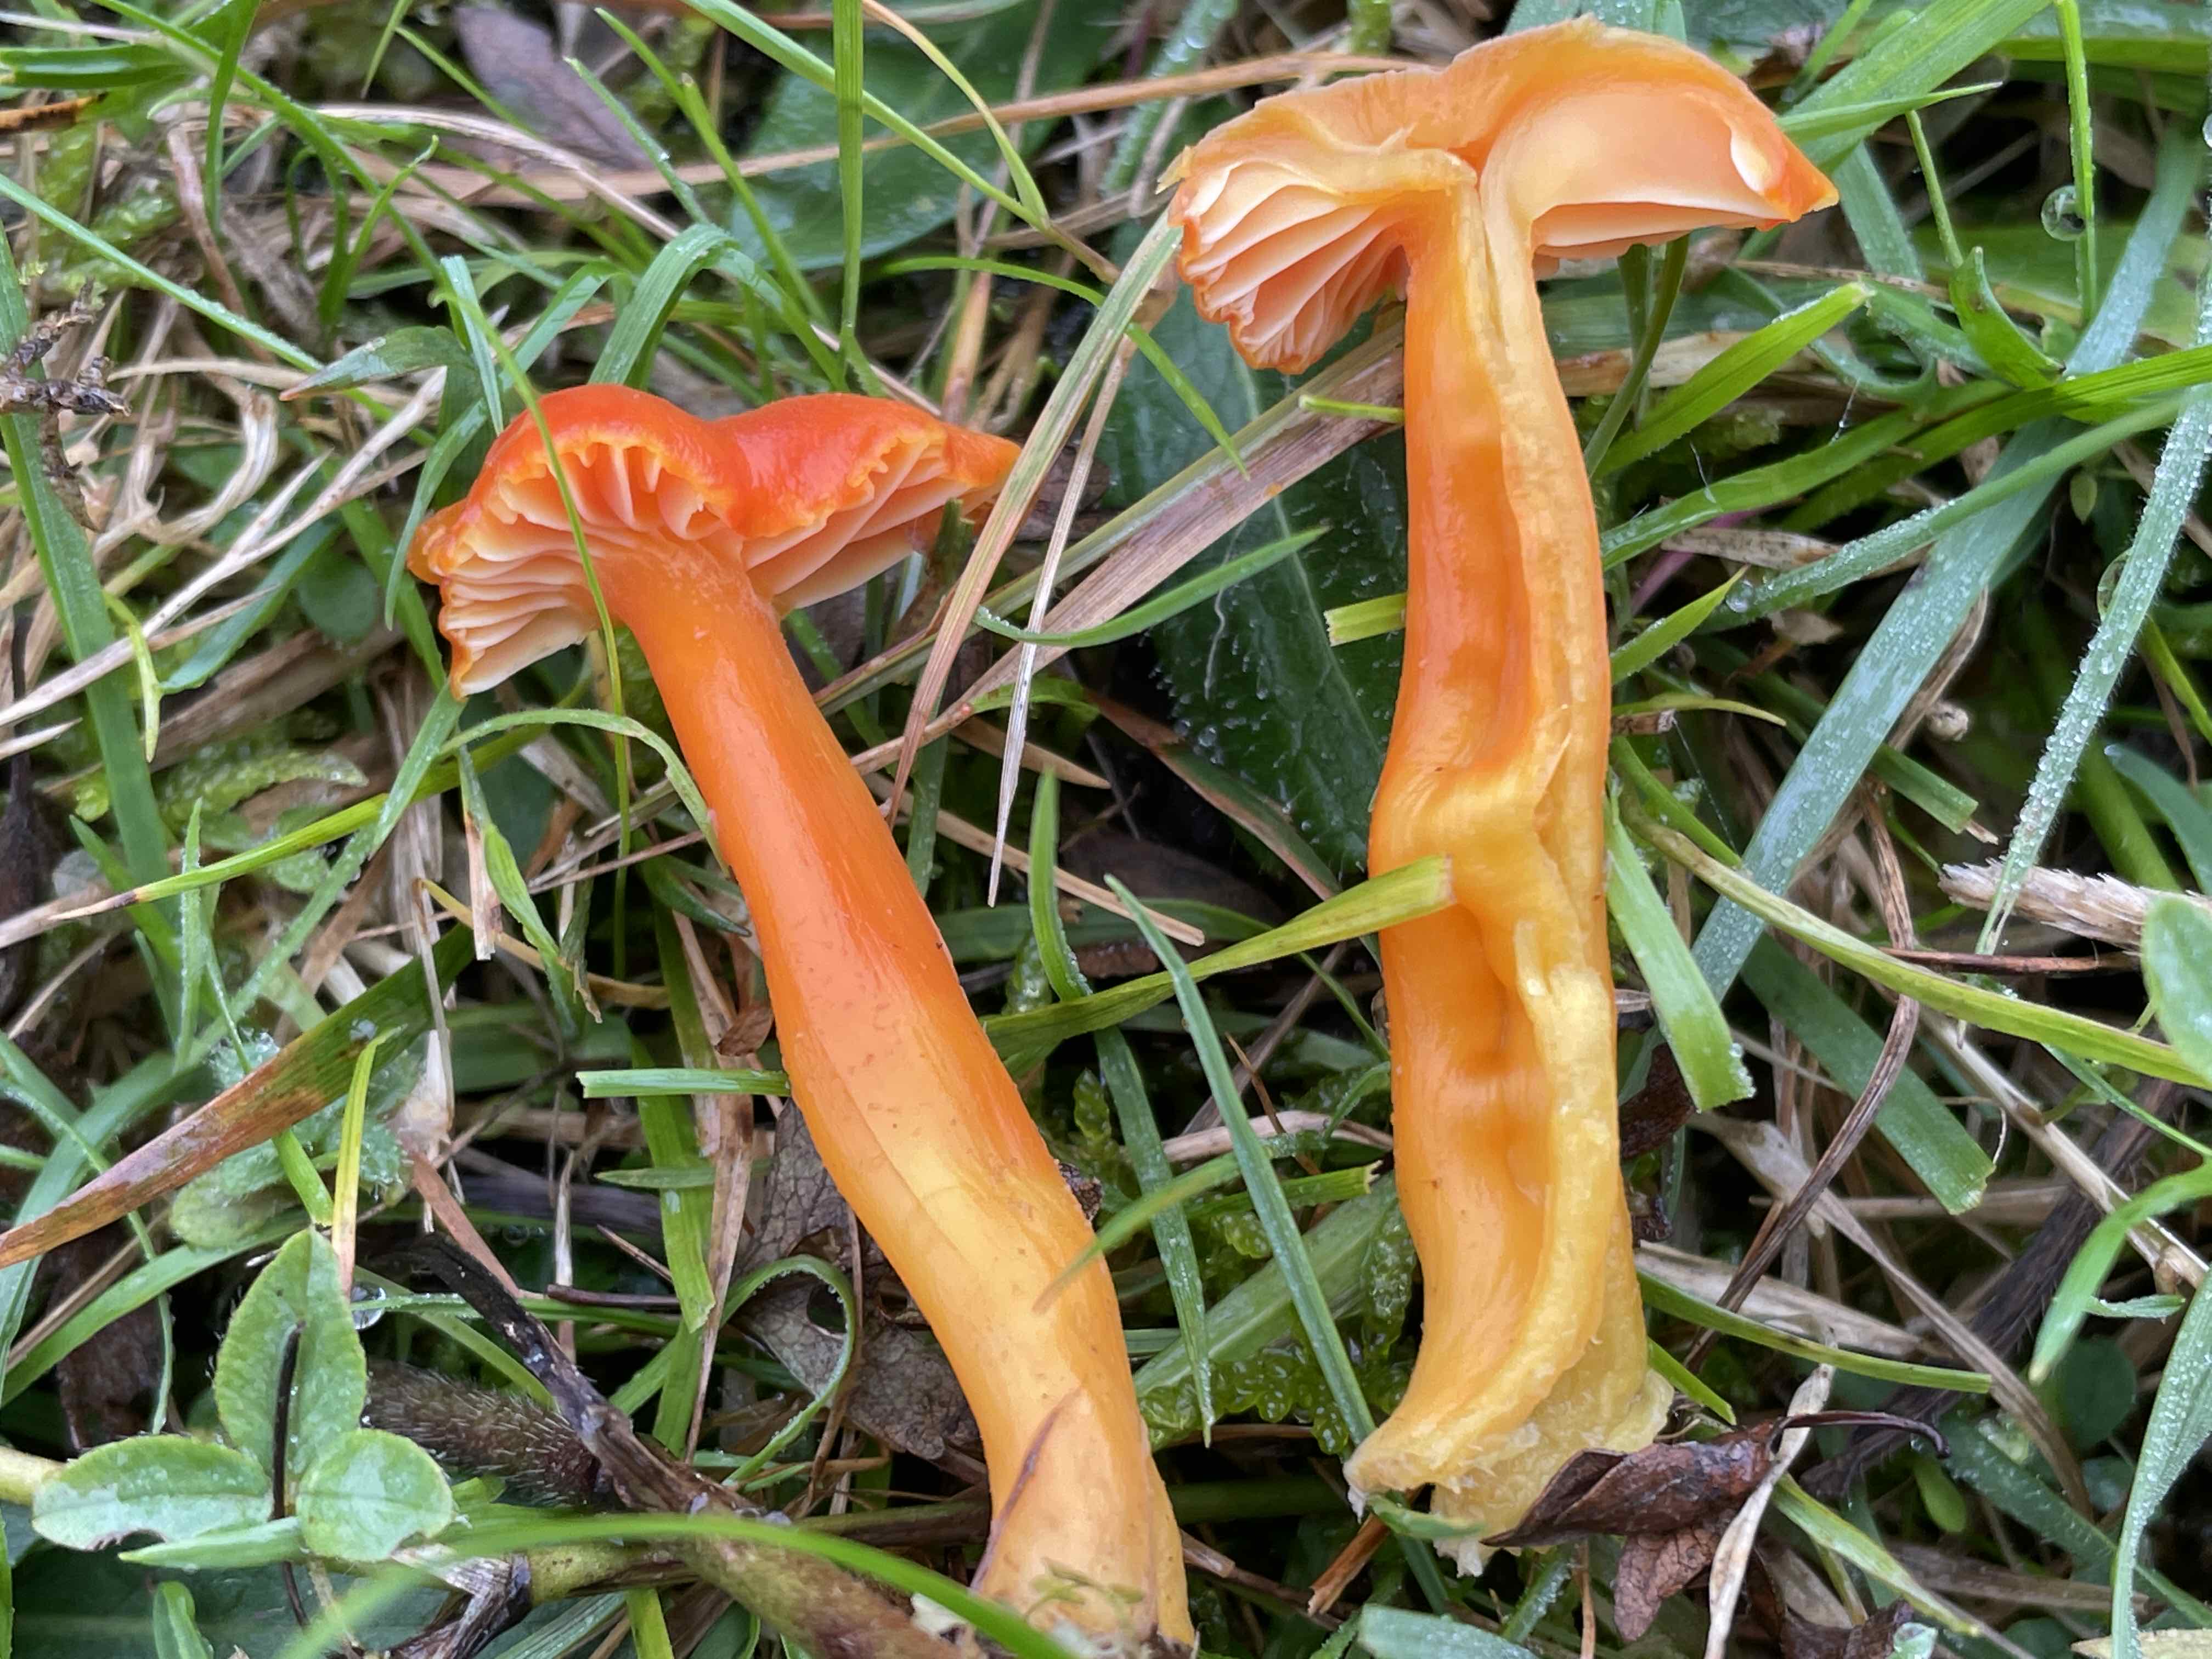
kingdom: Fungi
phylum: Basidiomycota
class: Agaricomycetes
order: Agaricales
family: Hygrophoraceae
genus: Hygrocybe
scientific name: Hygrocybe reidii
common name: honning-vokshat
